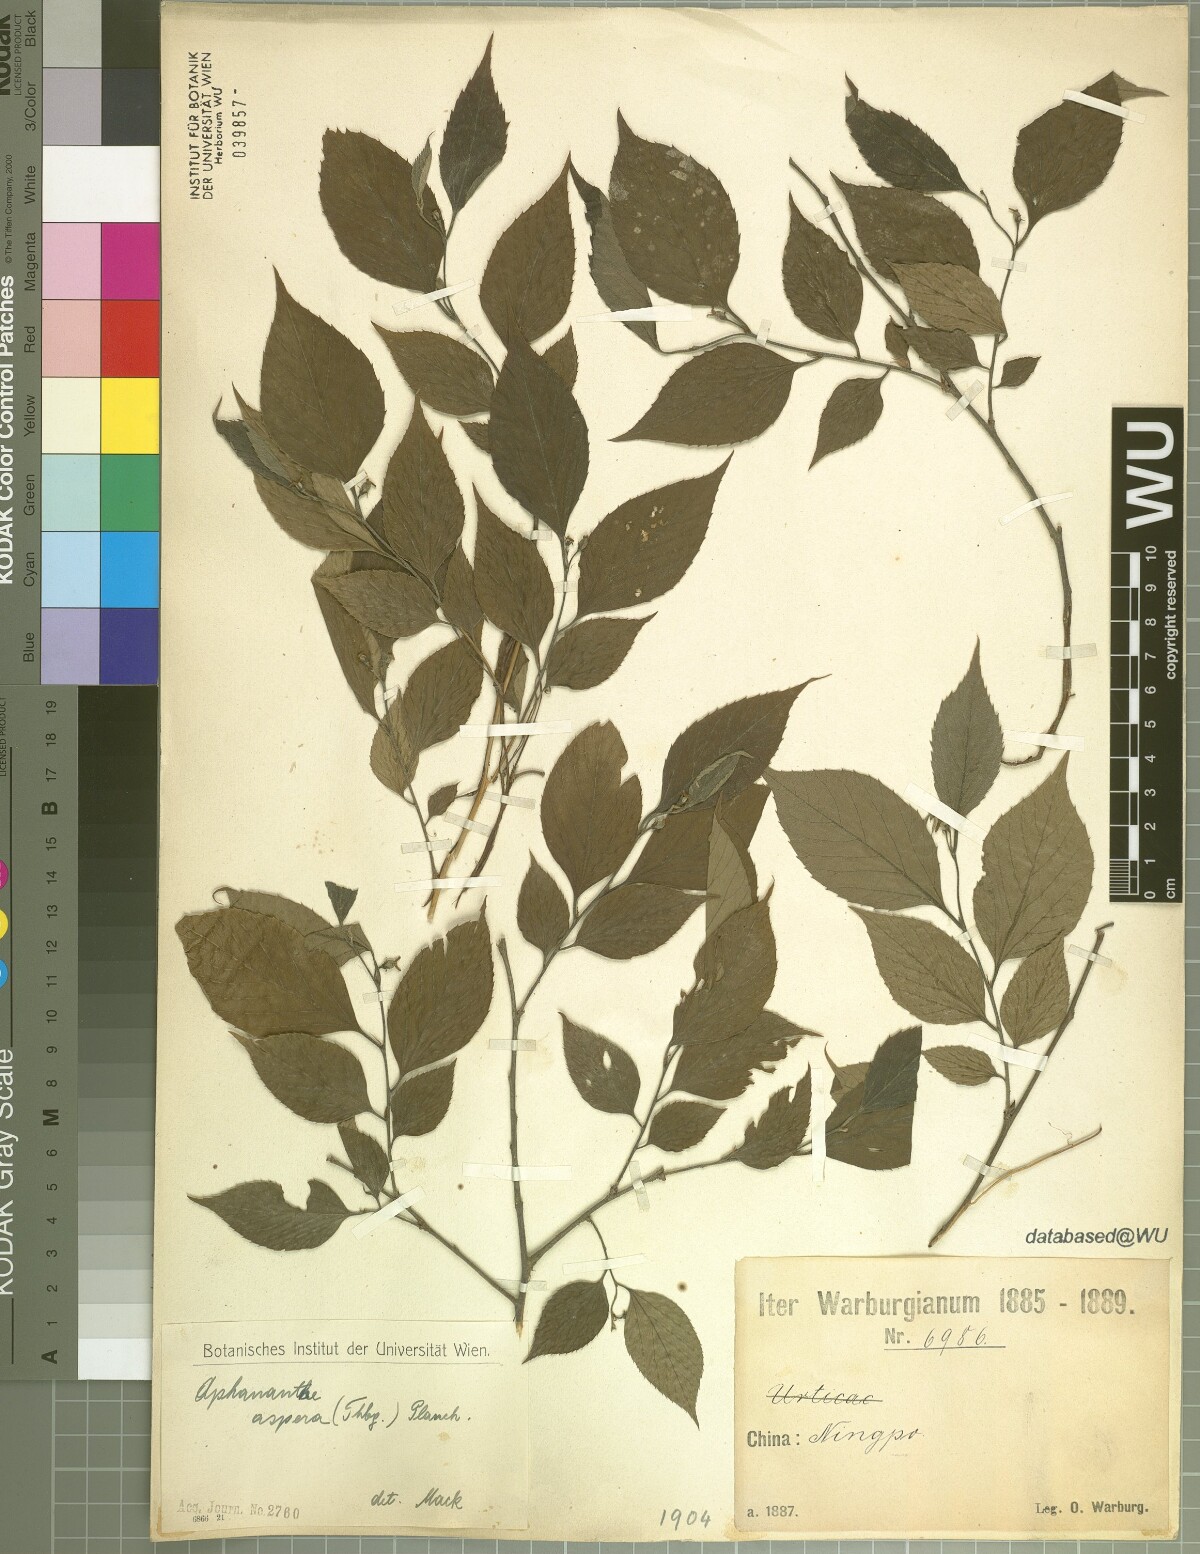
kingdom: Plantae
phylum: Tracheophyta
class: Magnoliopsida
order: Rosales
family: Cannabaceae
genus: Aphananthe
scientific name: Aphananthe aspera
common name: Mukutree
